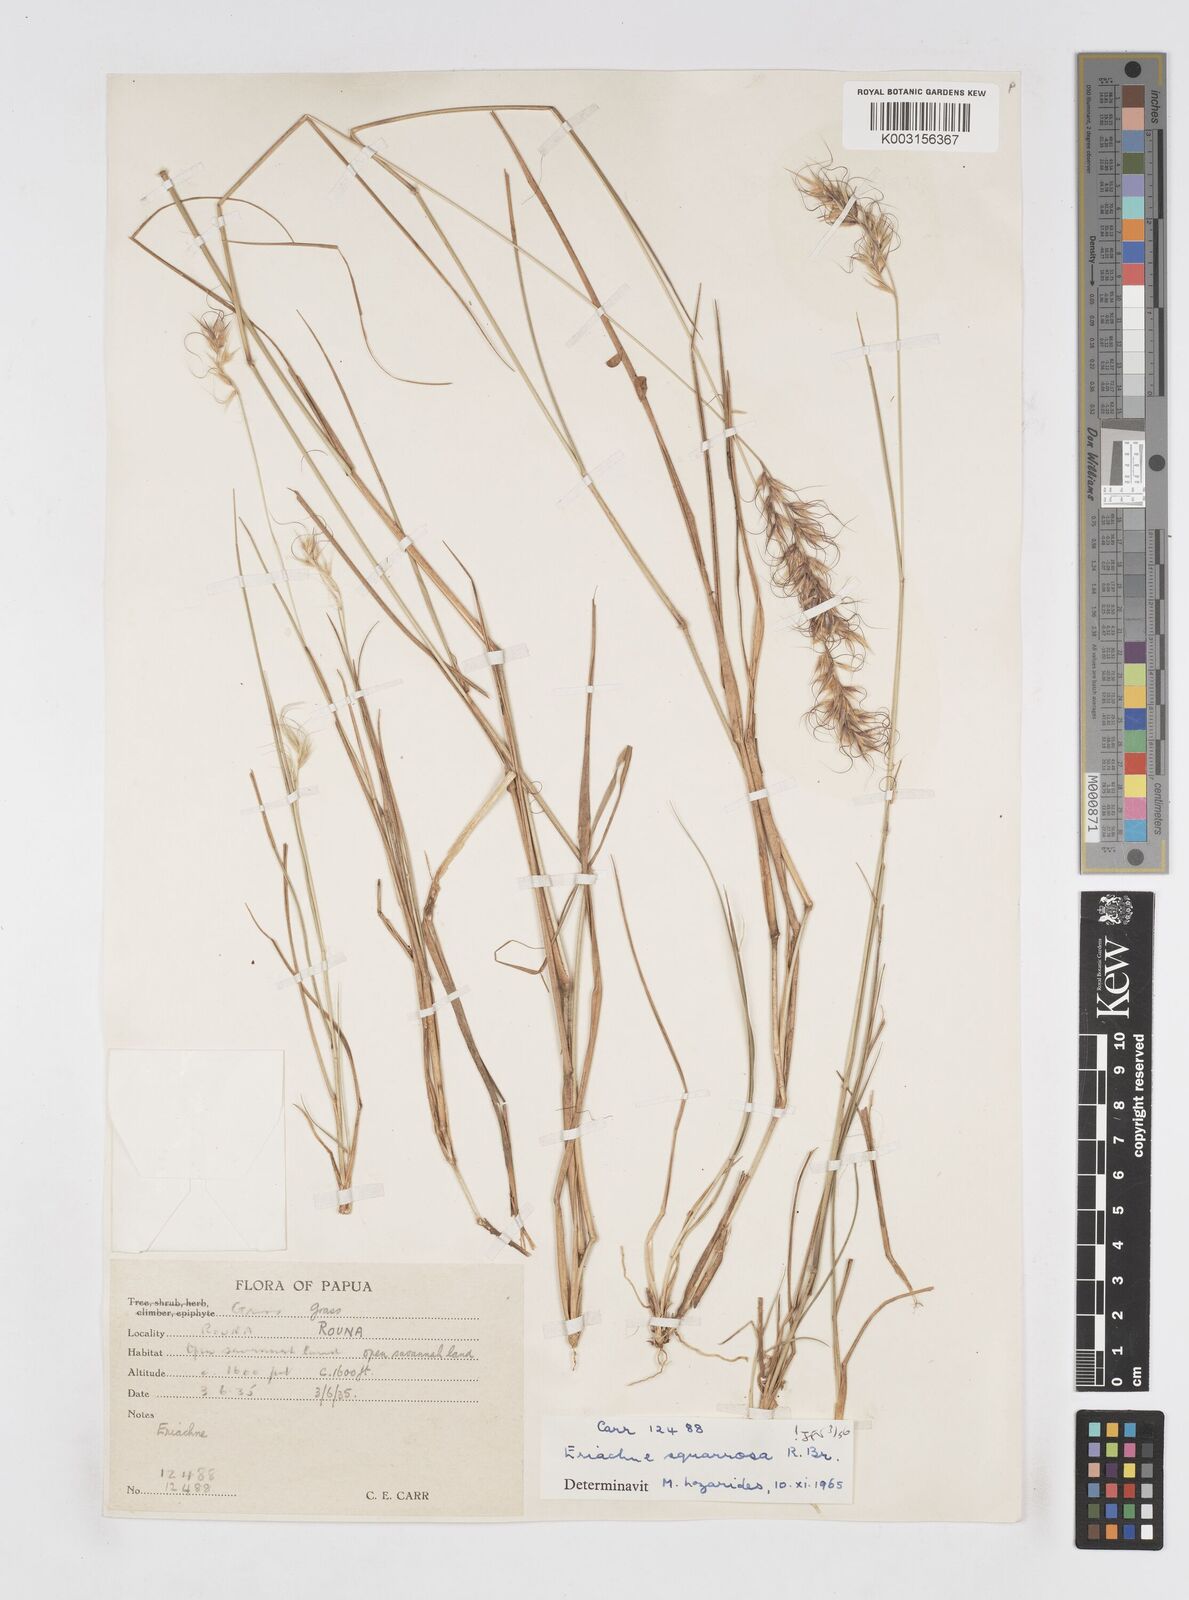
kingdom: Plantae
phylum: Tracheophyta
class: Liliopsida
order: Poales
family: Poaceae
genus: Eriachne
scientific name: Eriachne squarrosa
